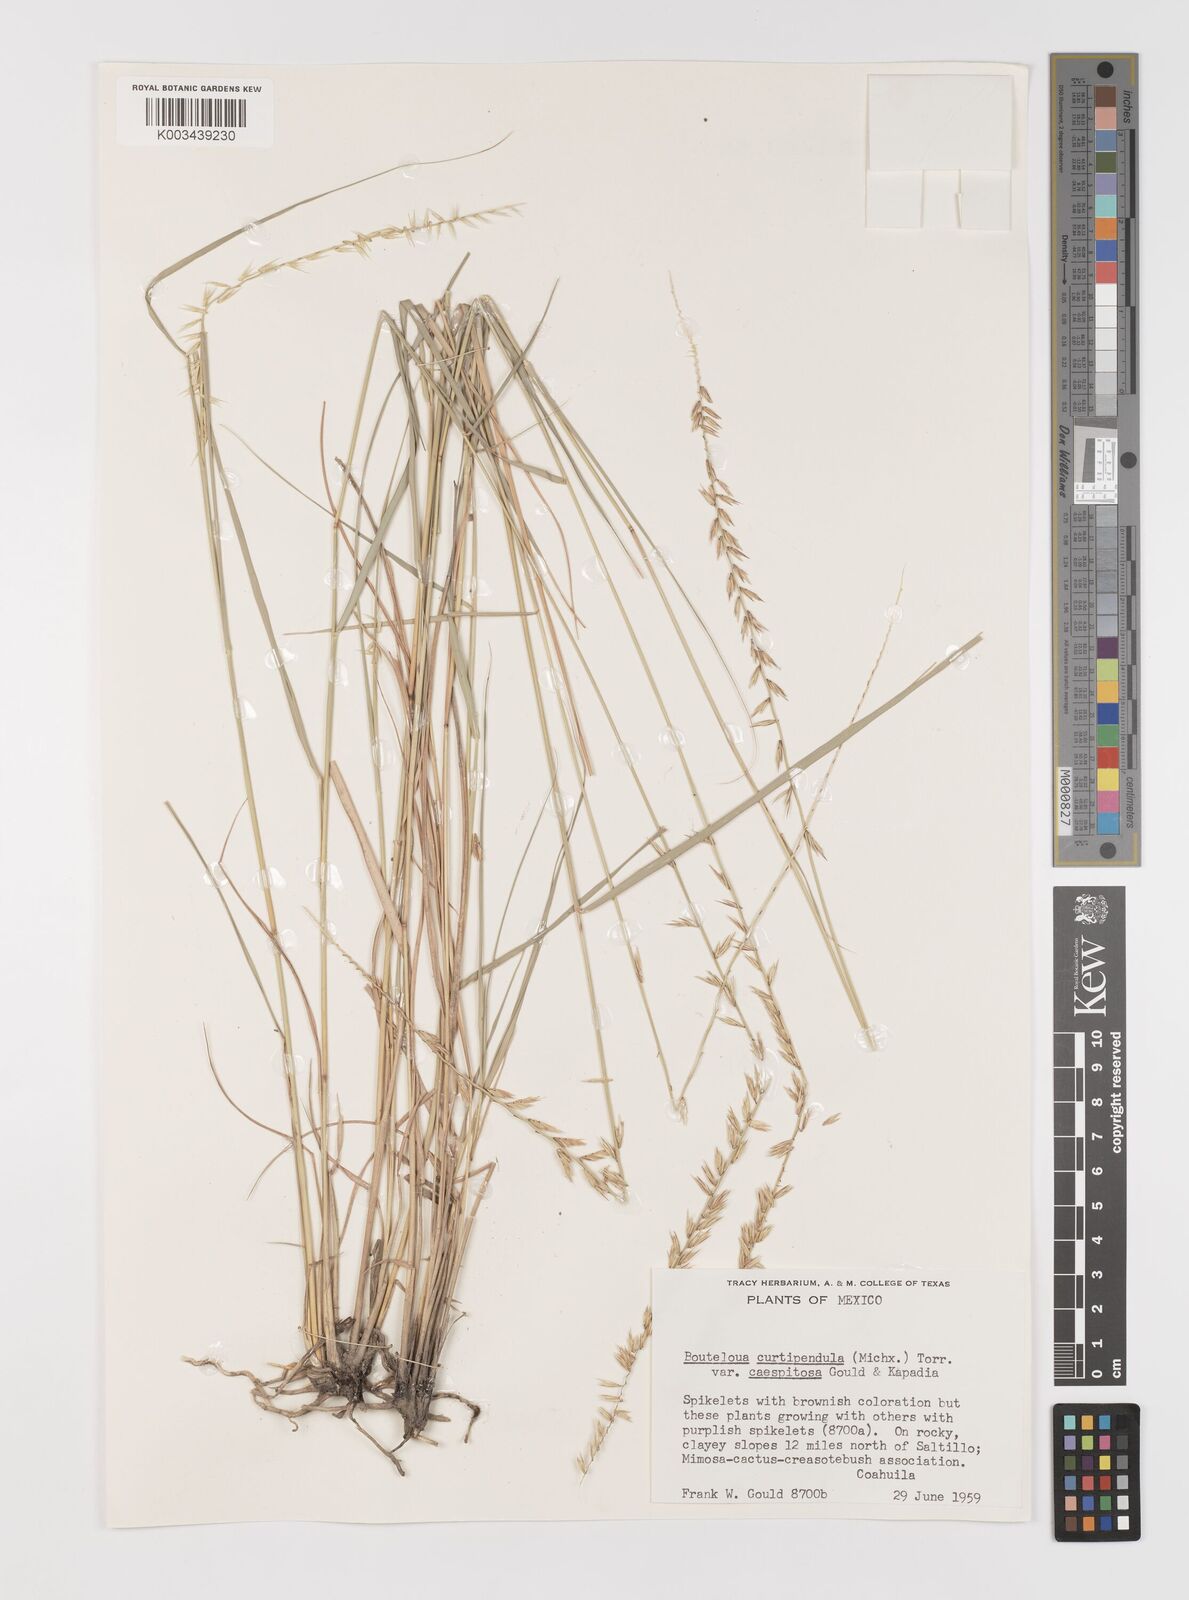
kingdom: Plantae
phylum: Tracheophyta
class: Liliopsida
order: Poales
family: Poaceae
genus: Bouteloua
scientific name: Bouteloua curtipendula
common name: Side-oats grama
